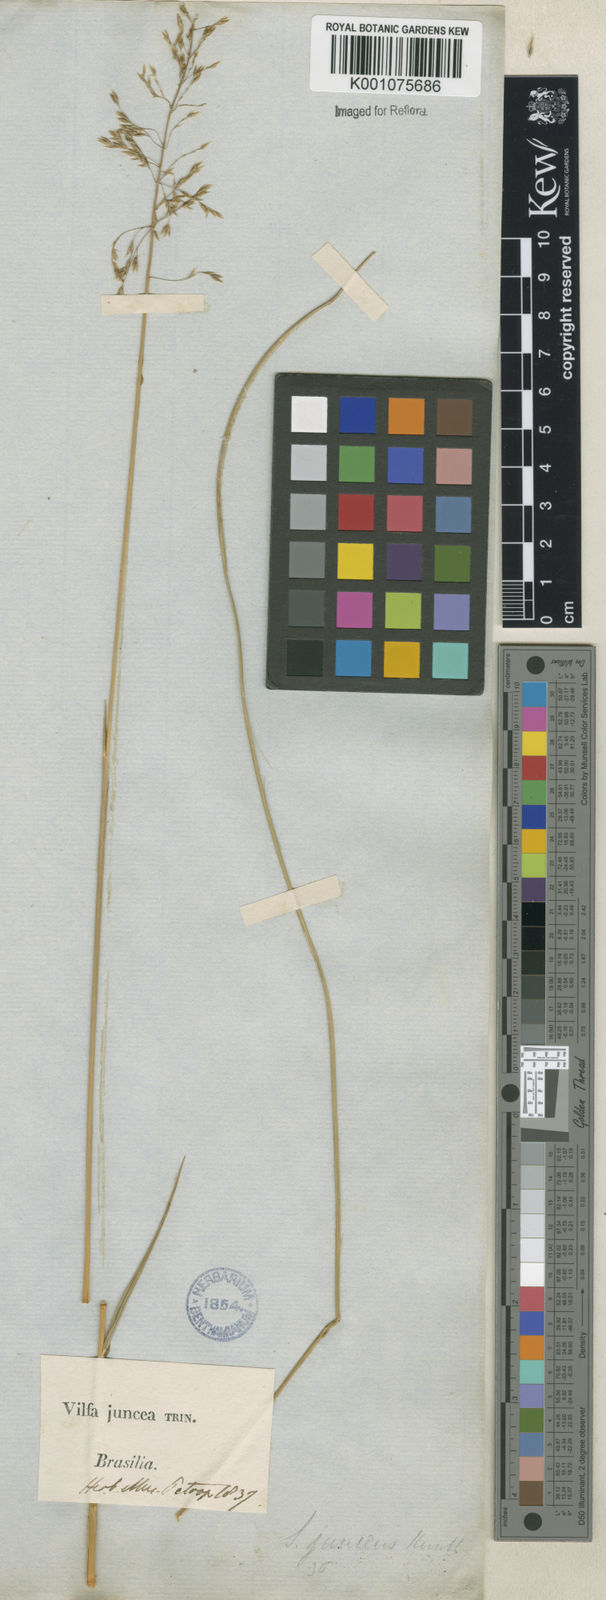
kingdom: Plantae
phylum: Tracheophyta
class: Liliopsida
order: Poales
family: Poaceae
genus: Sporobolus
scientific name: Sporobolus cubensis
